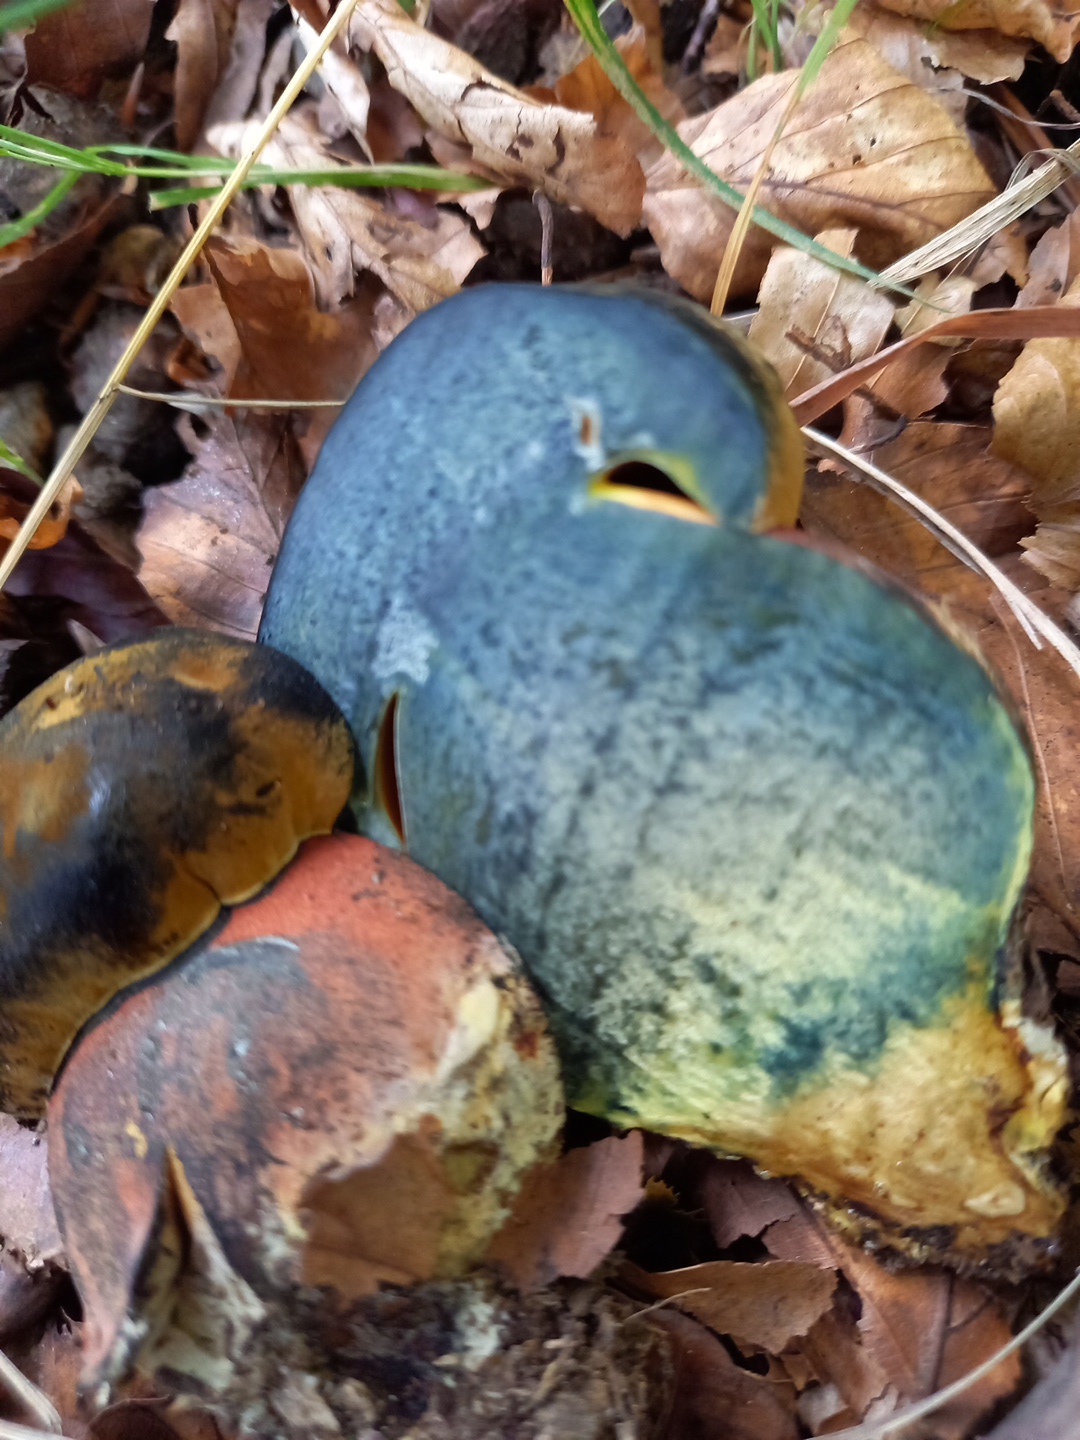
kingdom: Fungi
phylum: Basidiomycota
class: Agaricomycetes
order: Boletales
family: Boletaceae
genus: Neoboletus
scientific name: Neoboletus erythropus
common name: punktstokket indigorørhat
